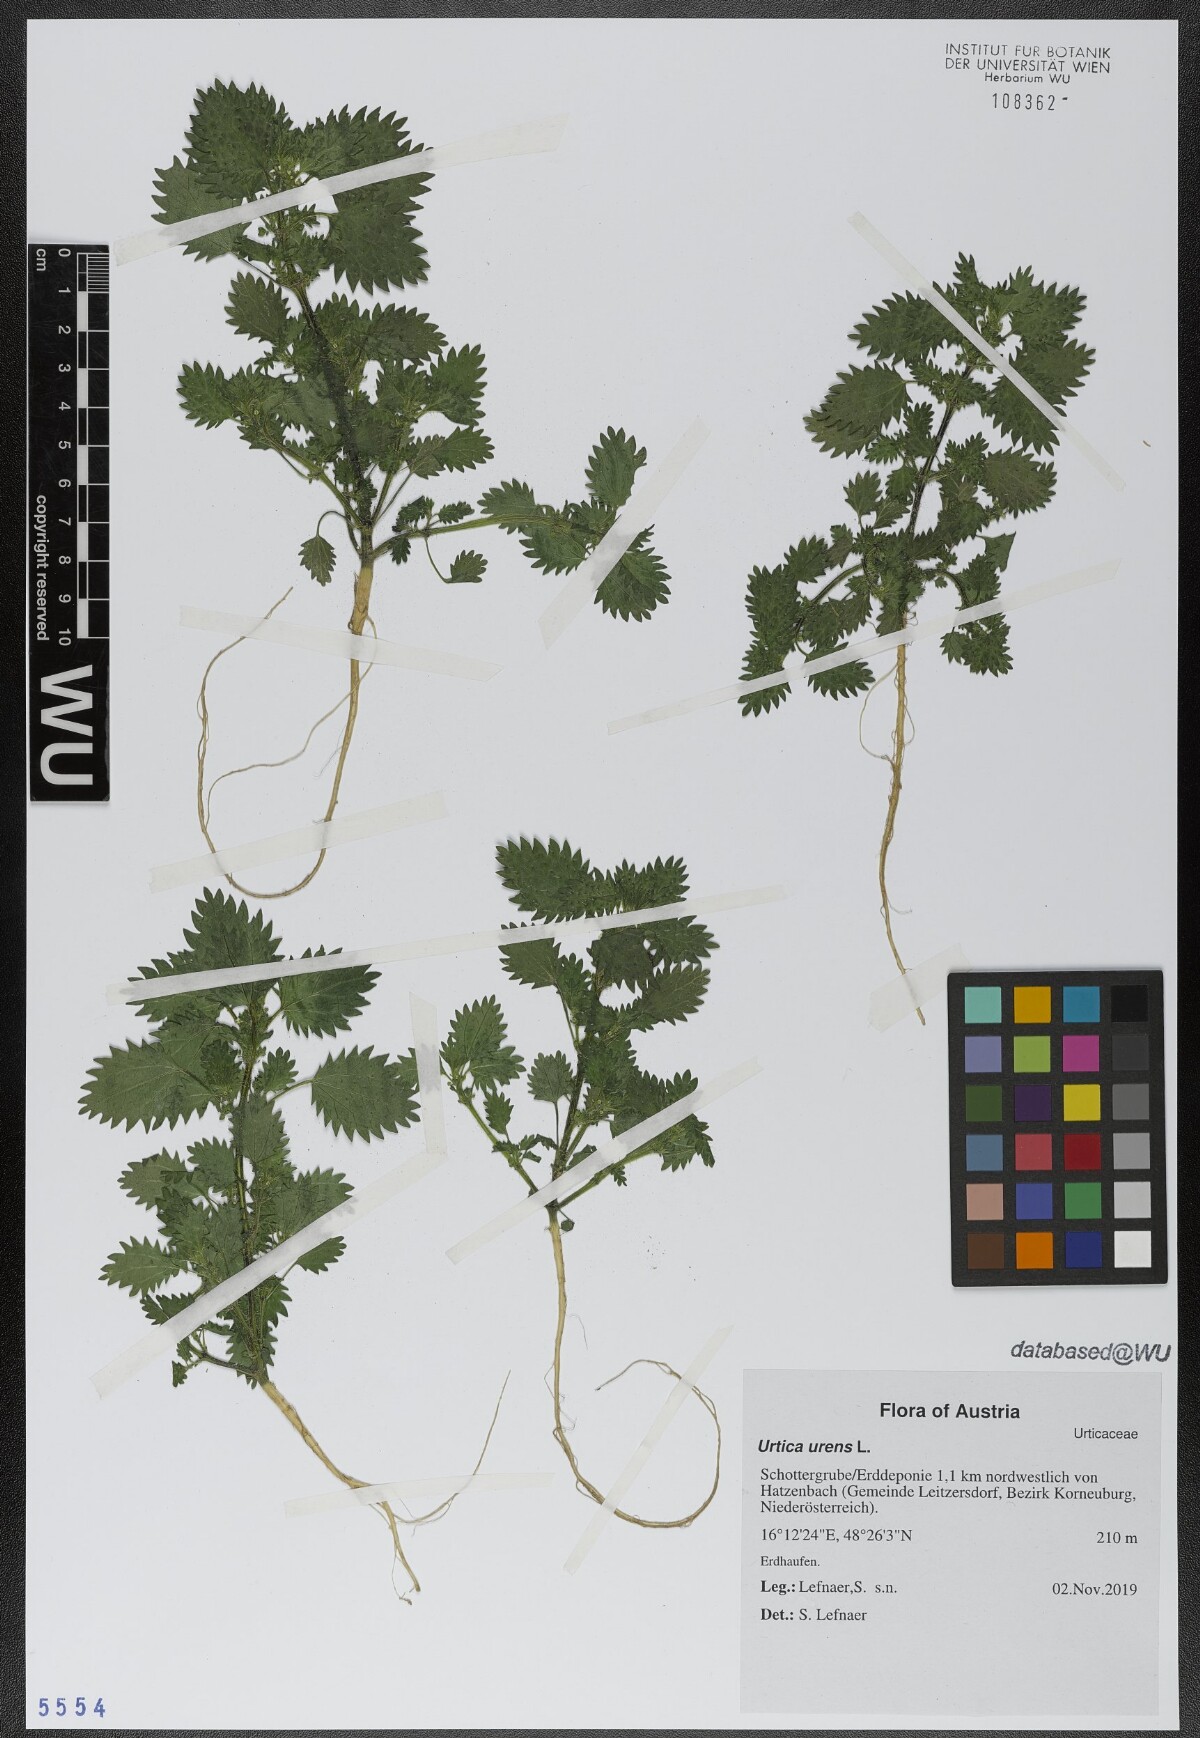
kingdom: Plantae
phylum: Tracheophyta
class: Magnoliopsida
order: Rosales
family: Urticaceae
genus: Urtica
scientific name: Urtica urens
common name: Dwarf nettle
